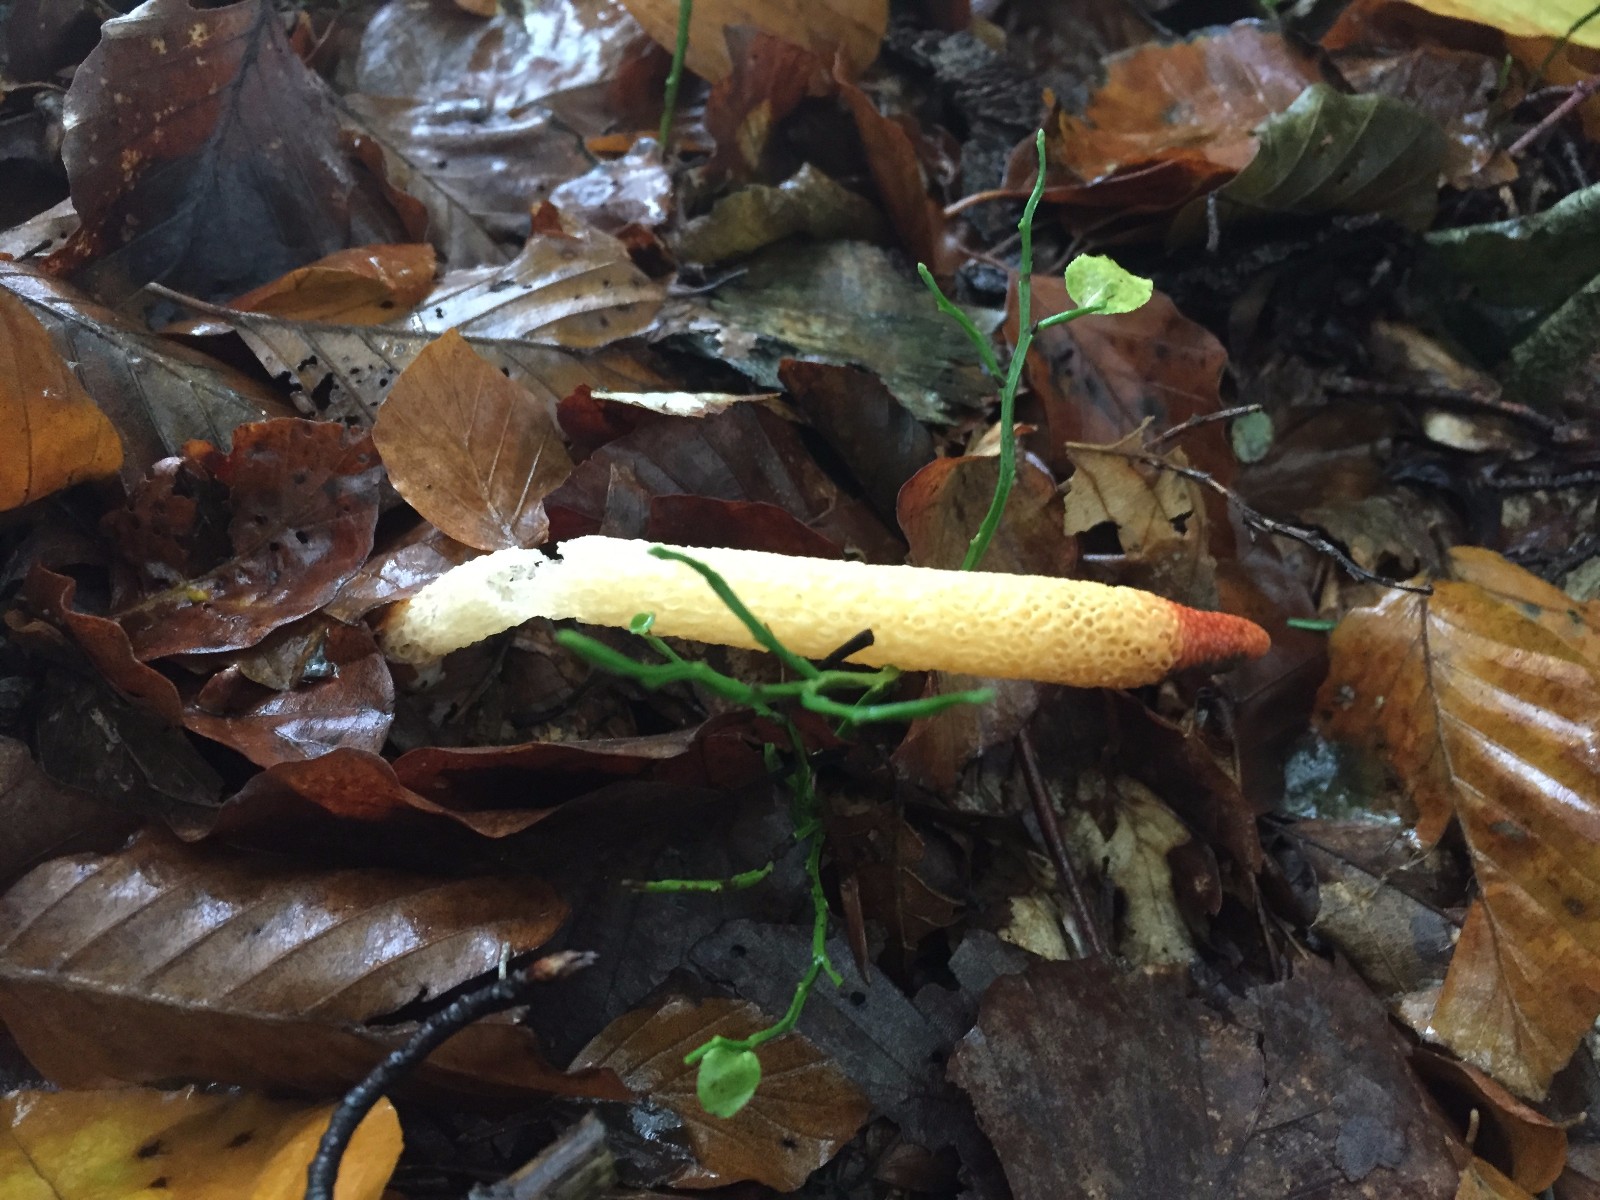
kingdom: Fungi
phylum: Basidiomycota
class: Agaricomycetes
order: Phallales
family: Phallaceae
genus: Mutinus
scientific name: Mutinus caninus
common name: hunde-stinksvamp
